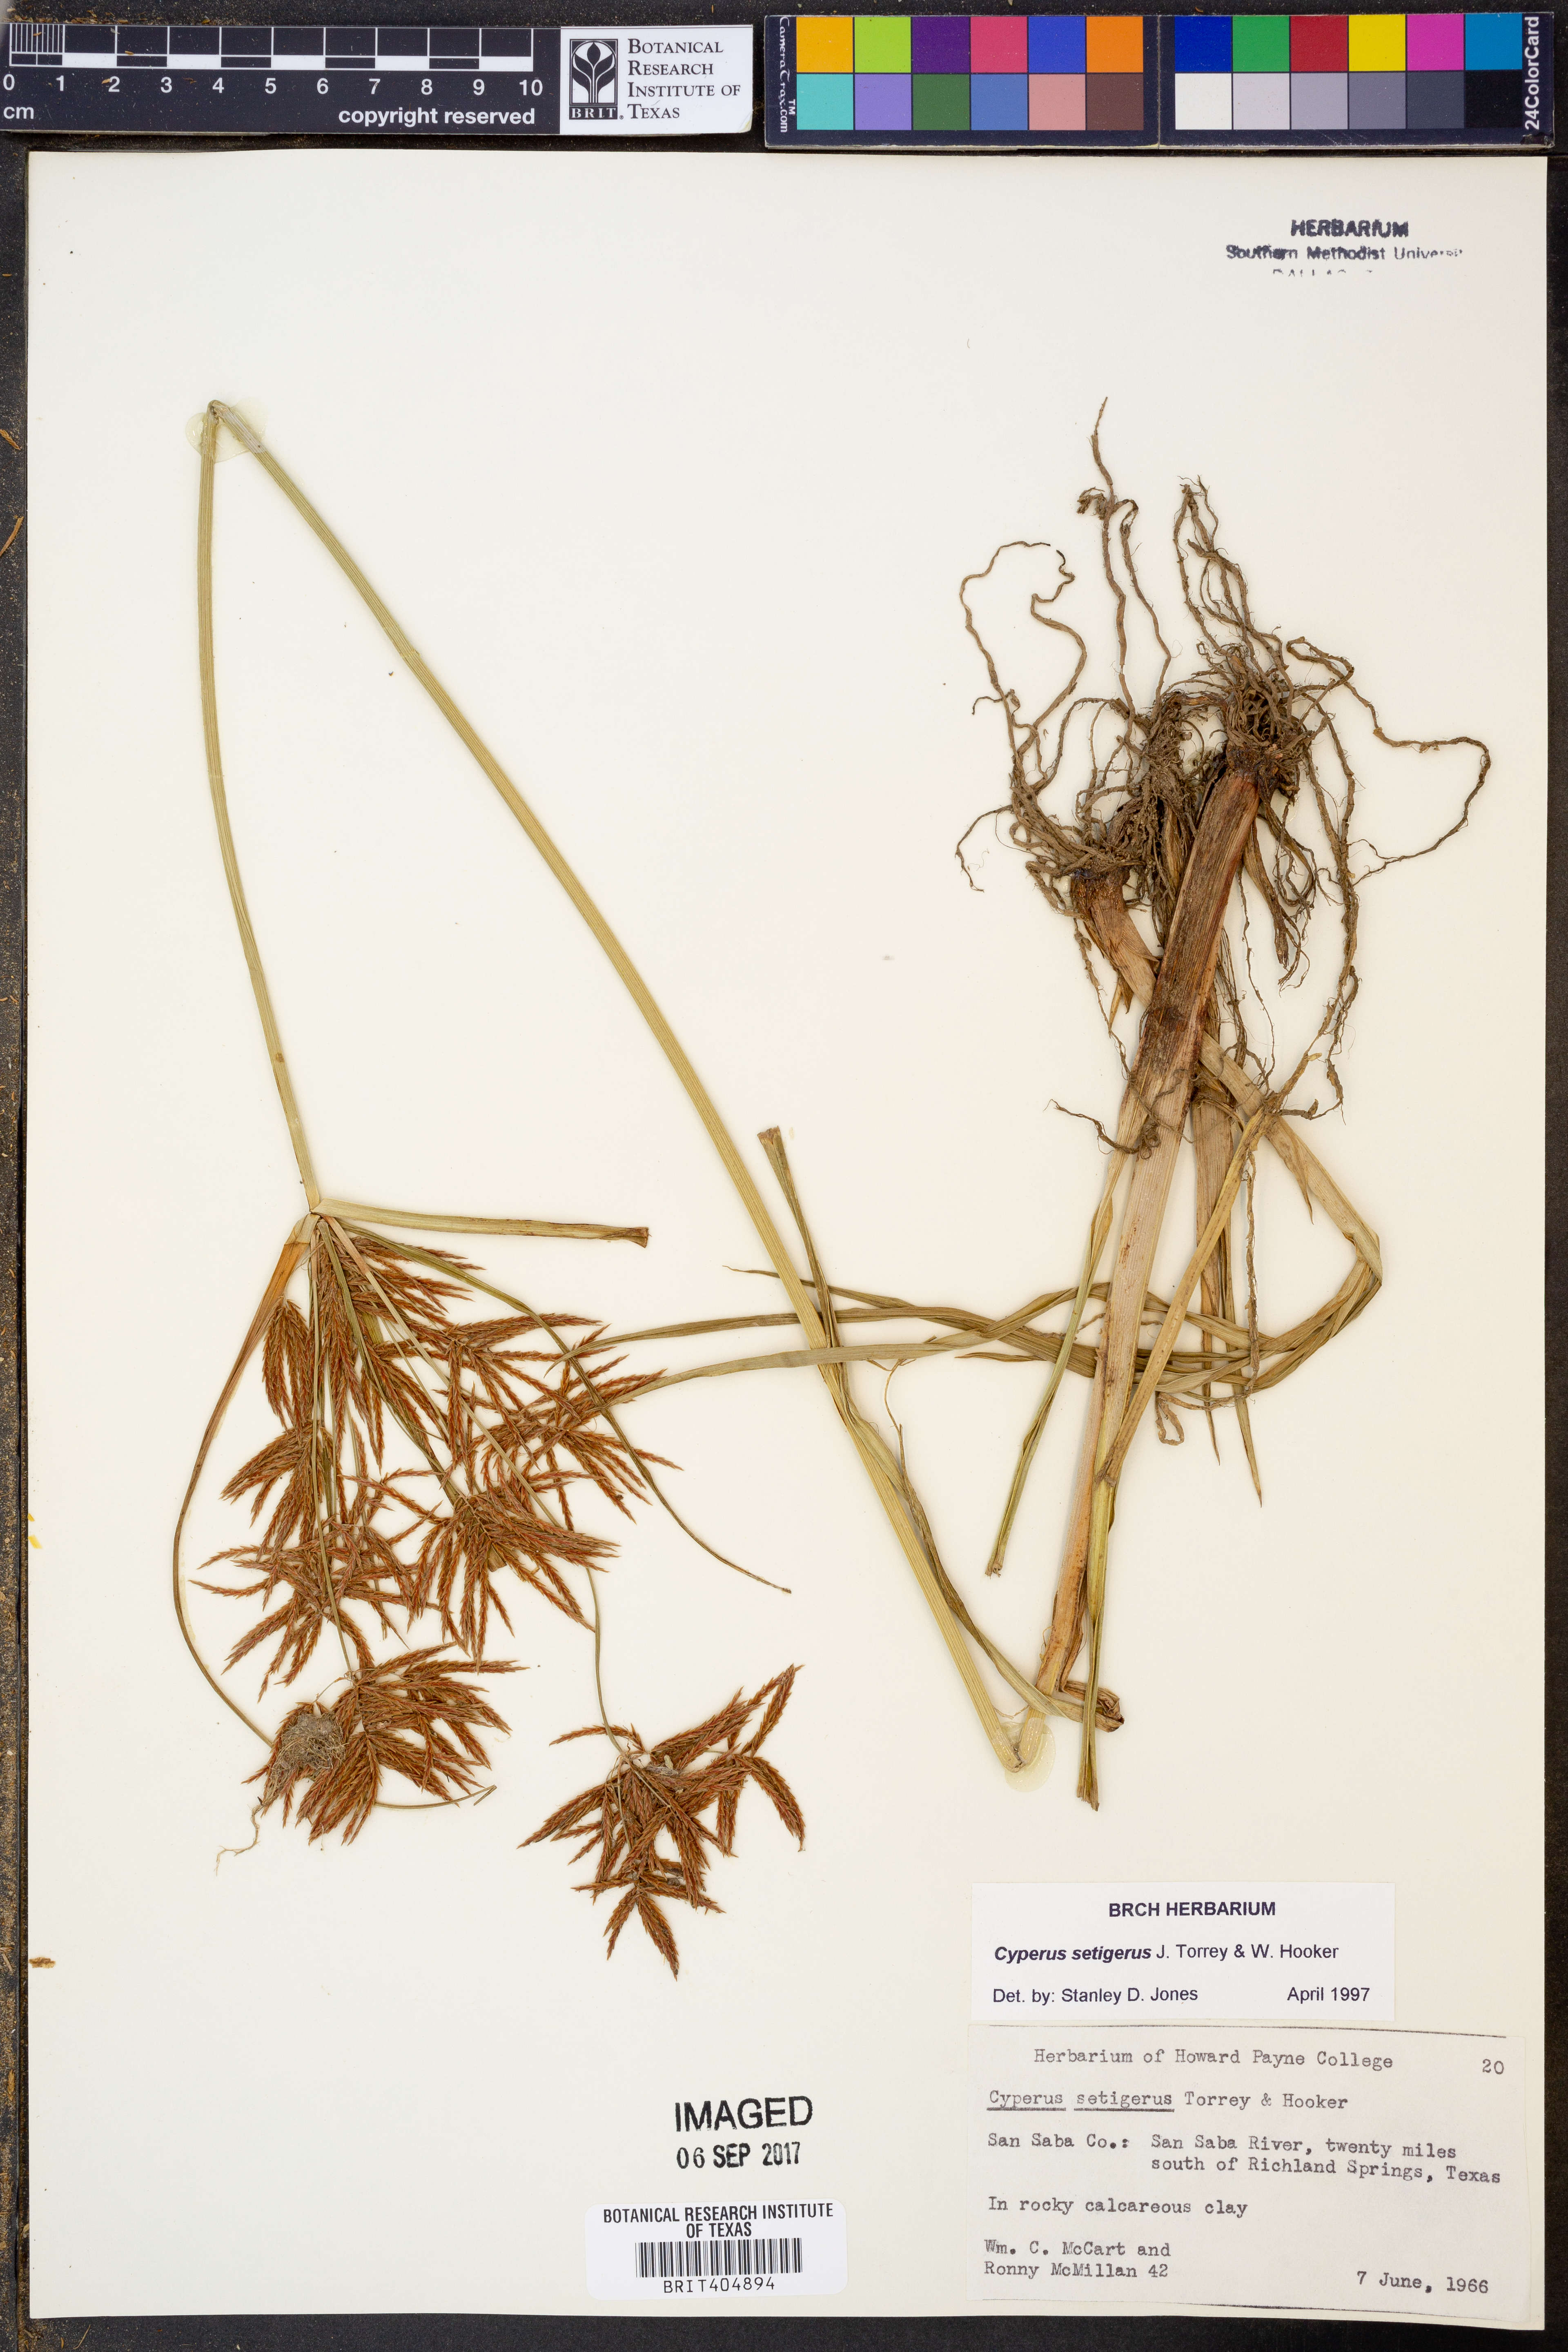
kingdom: Plantae
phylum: Tracheophyta
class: Liliopsida
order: Poales
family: Cyperaceae
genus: Cyperus
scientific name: Cyperus setigerus
